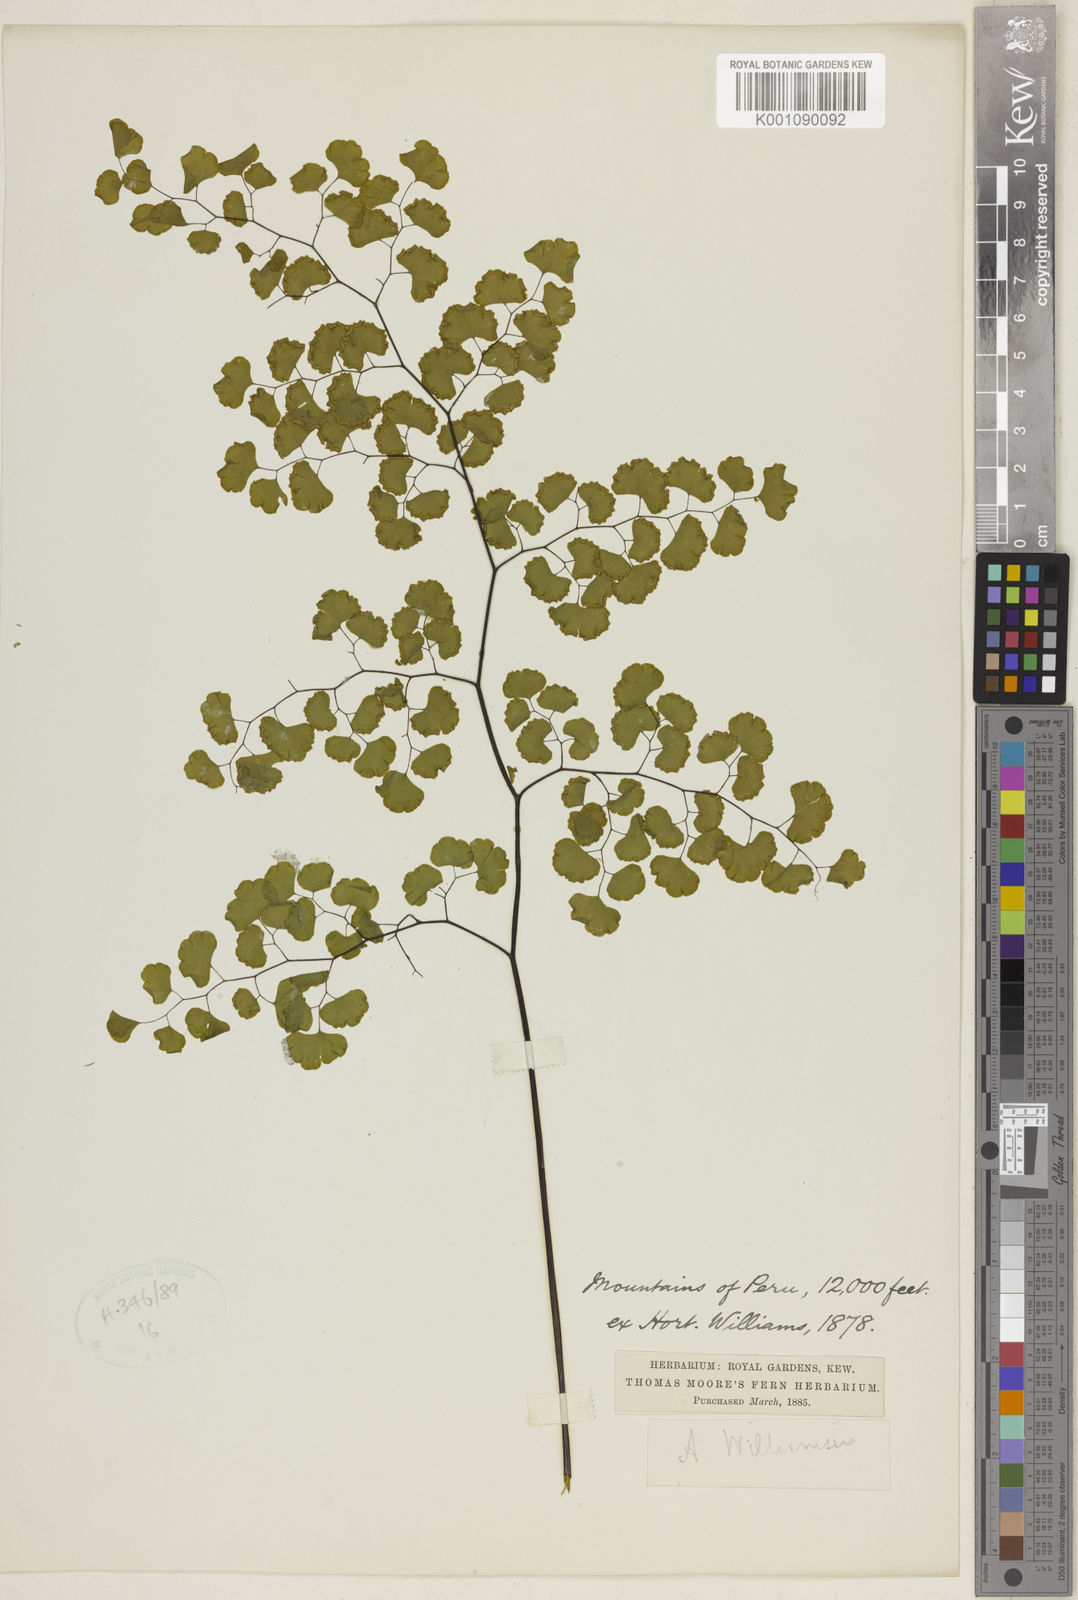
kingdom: Plantae
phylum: Tracheophyta
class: Polypodiopsida
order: Polypodiales
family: Pteridaceae
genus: Adiantum
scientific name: Adiantum sulphureum
